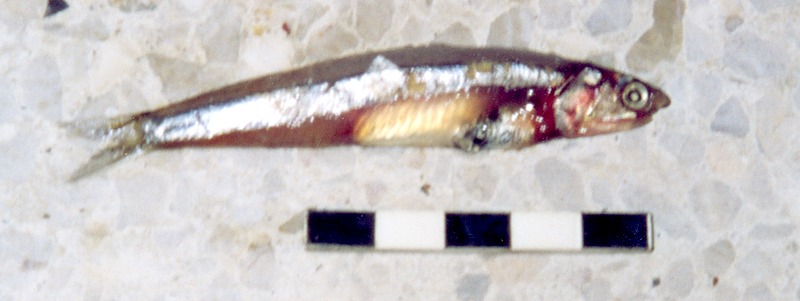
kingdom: Animalia
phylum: Chordata
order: Clupeiformes
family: Engraulidae
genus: Stolephorus
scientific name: Stolephorus commersonnii
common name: Commerson's anchovy
